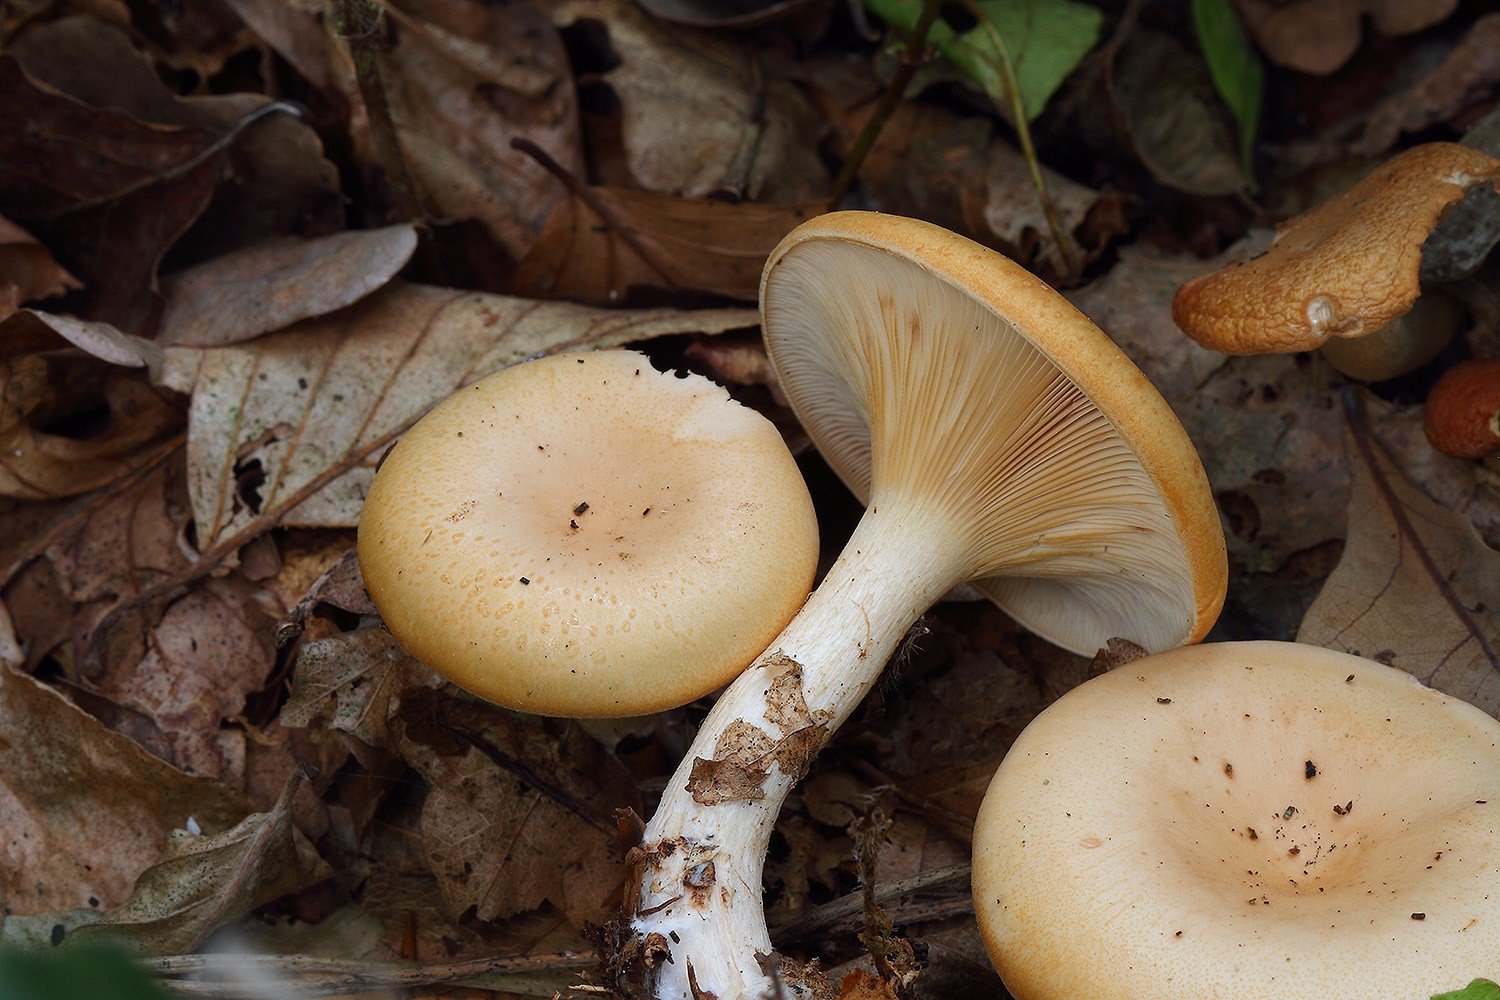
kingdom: Fungi
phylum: Basidiomycota
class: Agaricomycetes
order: Agaricales
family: Tricholomataceae
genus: Paralepista
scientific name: Paralepista gilva
